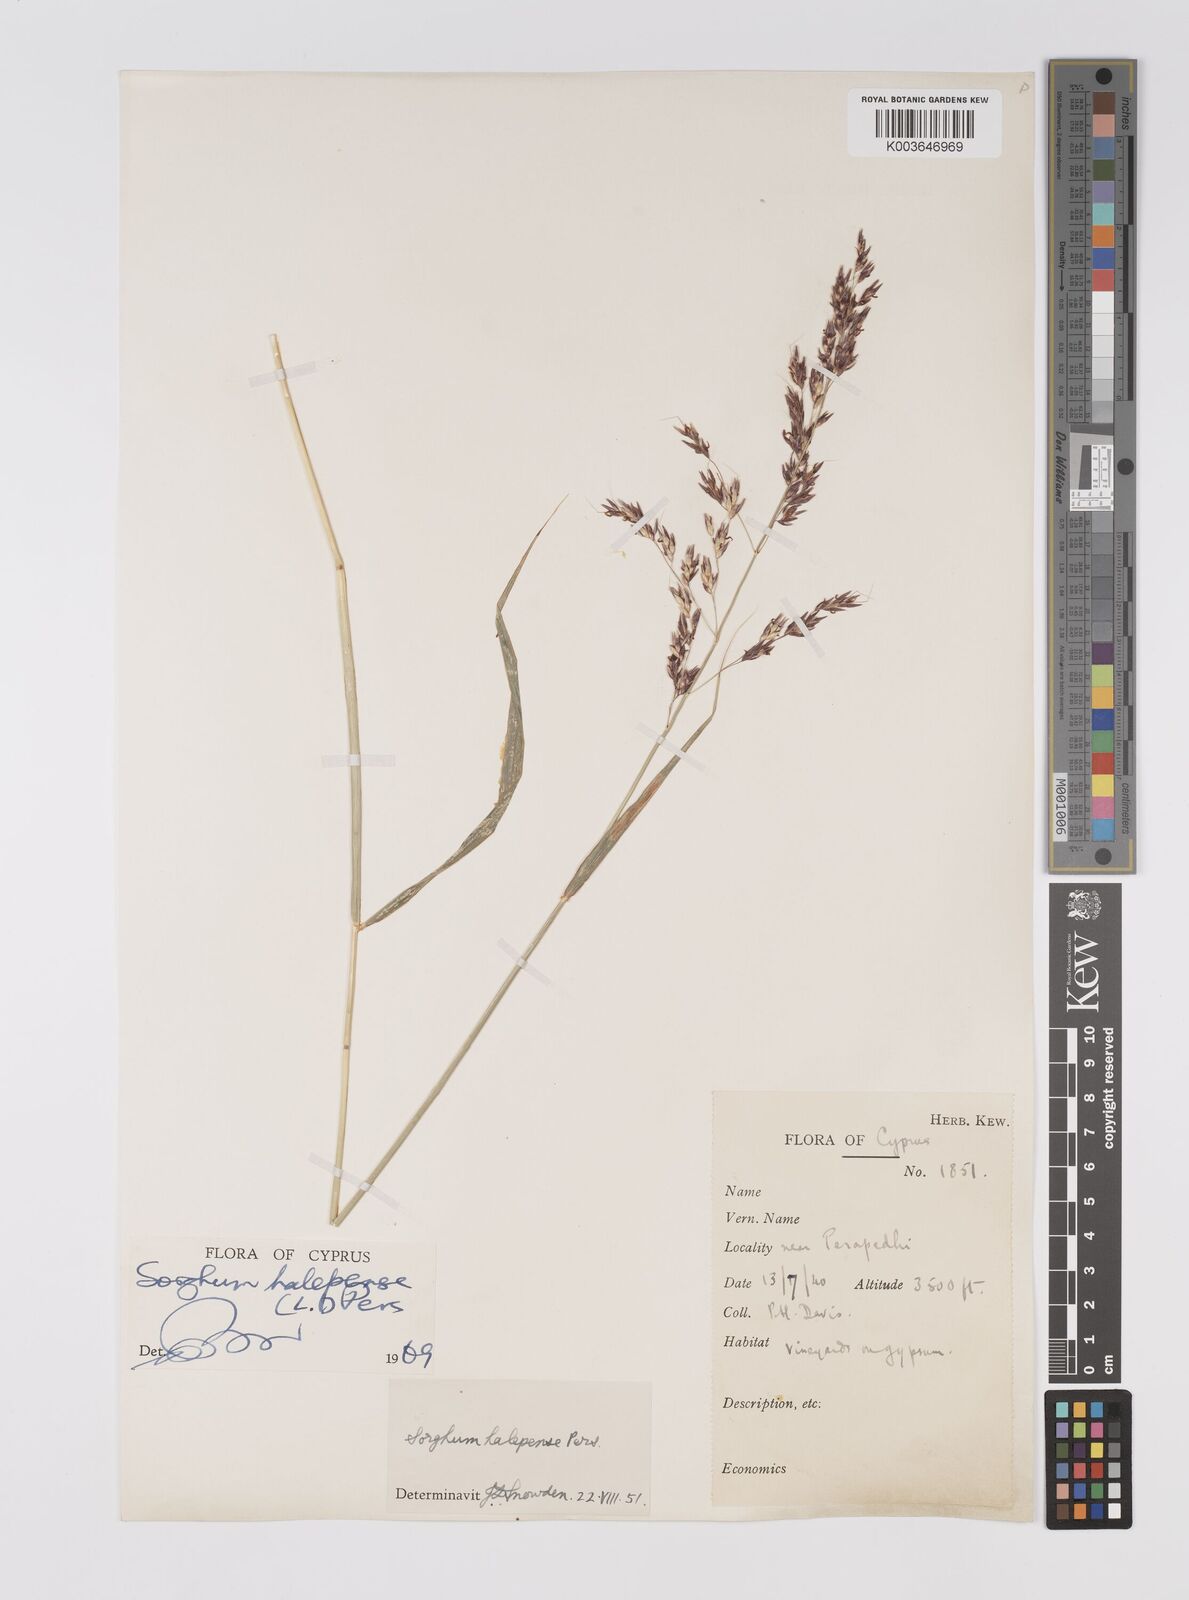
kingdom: Plantae
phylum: Tracheophyta
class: Liliopsida
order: Poales
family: Poaceae
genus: Sorghum
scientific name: Sorghum halepense
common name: Johnson-grass
